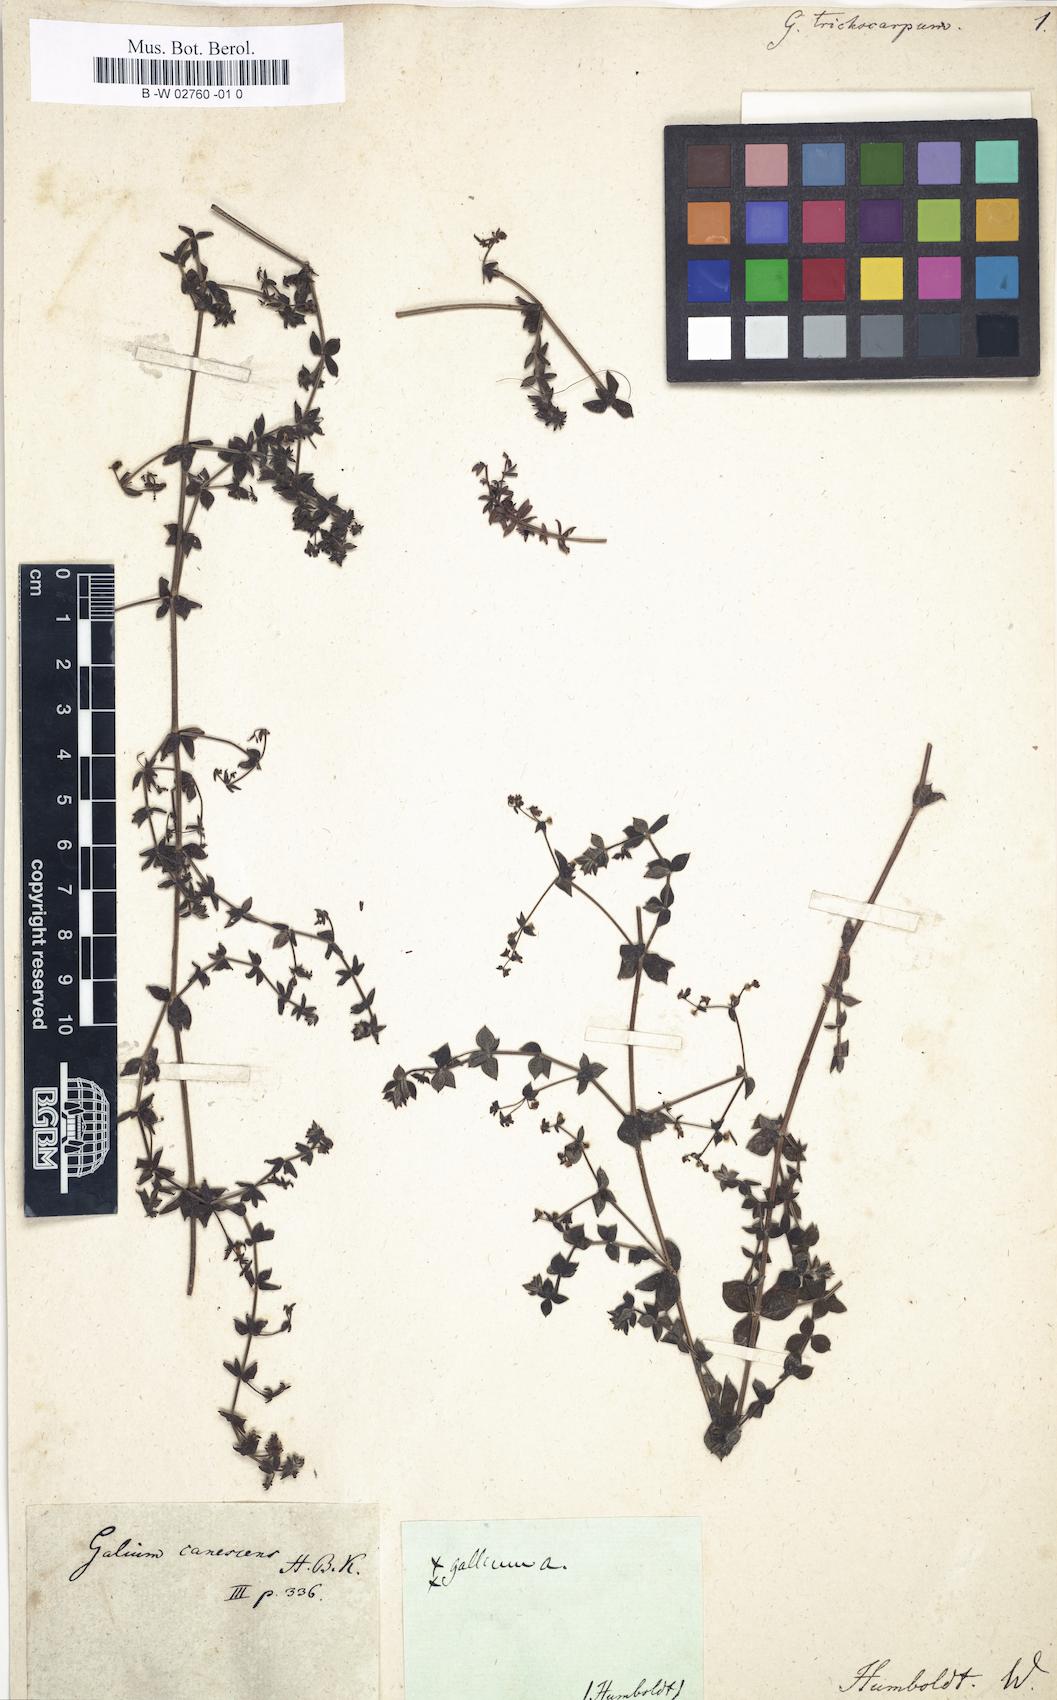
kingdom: Plantae
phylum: Tracheophyta
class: Magnoliopsida
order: Gentianales
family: Rubiaceae
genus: Galium
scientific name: Galium trichocarpum
